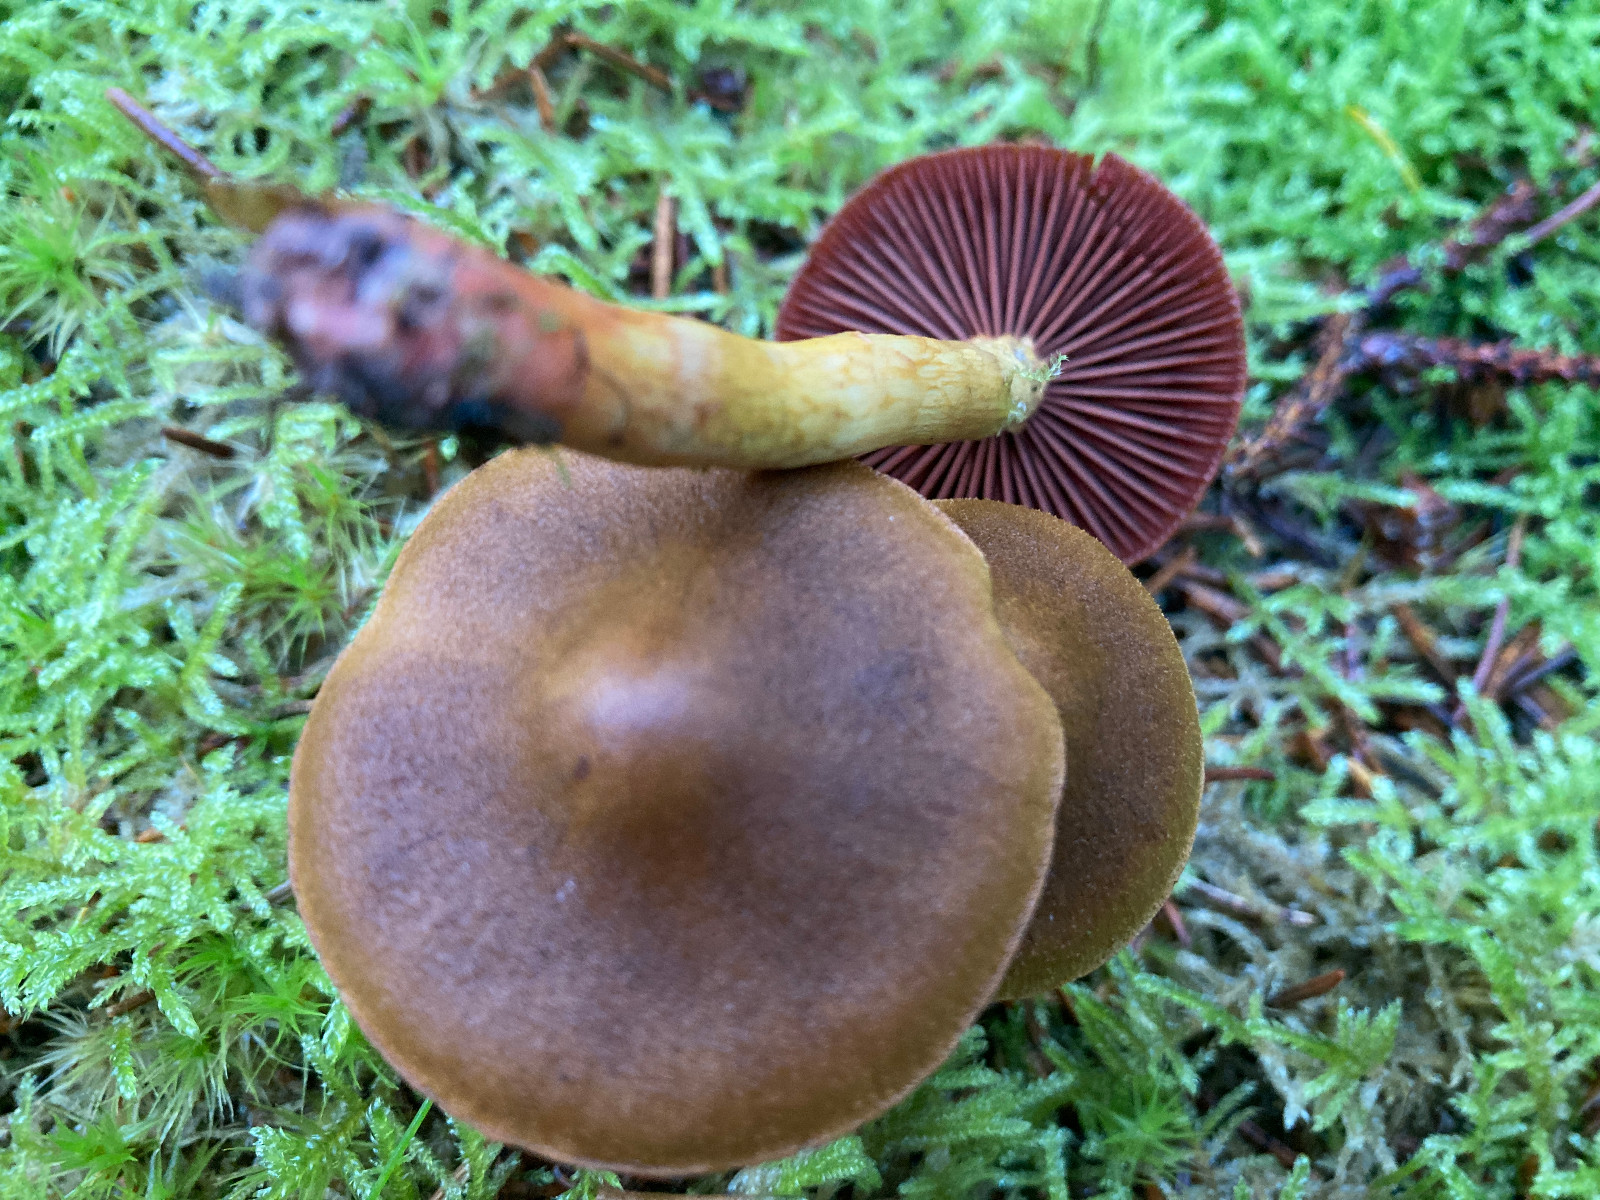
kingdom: Fungi
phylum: Basidiomycota
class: Agaricomycetes
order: Agaricales
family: Cortinariaceae
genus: Cortinarius
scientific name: Cortinarius
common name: cinnoberbladet slørhat
